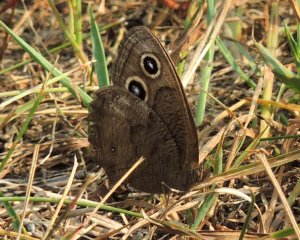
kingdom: Animalia
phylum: Arthropoda
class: Insecta
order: Lepidoptera
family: Nymphalidae
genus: Cercyonis
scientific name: Cercyonis pegala
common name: Common Wood-Nymph
